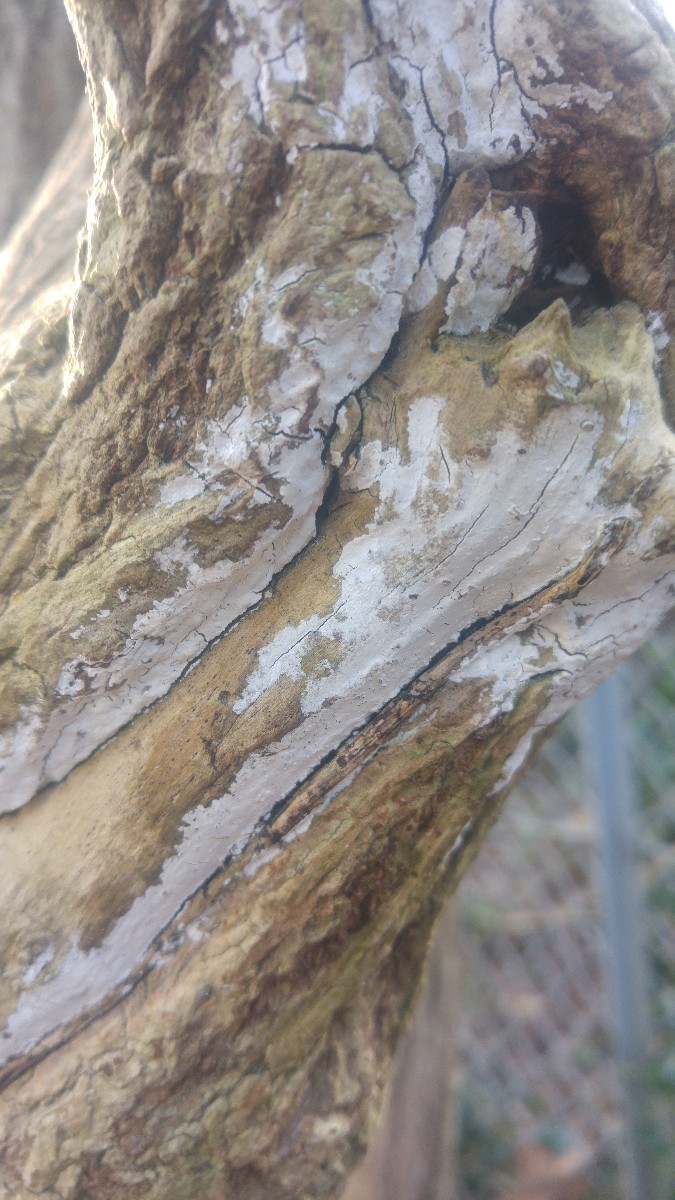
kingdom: Fungi
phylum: Basidiomycota
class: Agaricomycetes
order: Corticiales
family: Corticiaceae
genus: Lyomyces
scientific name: Lyomyces sambuci
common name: almindelig hyldehinde
